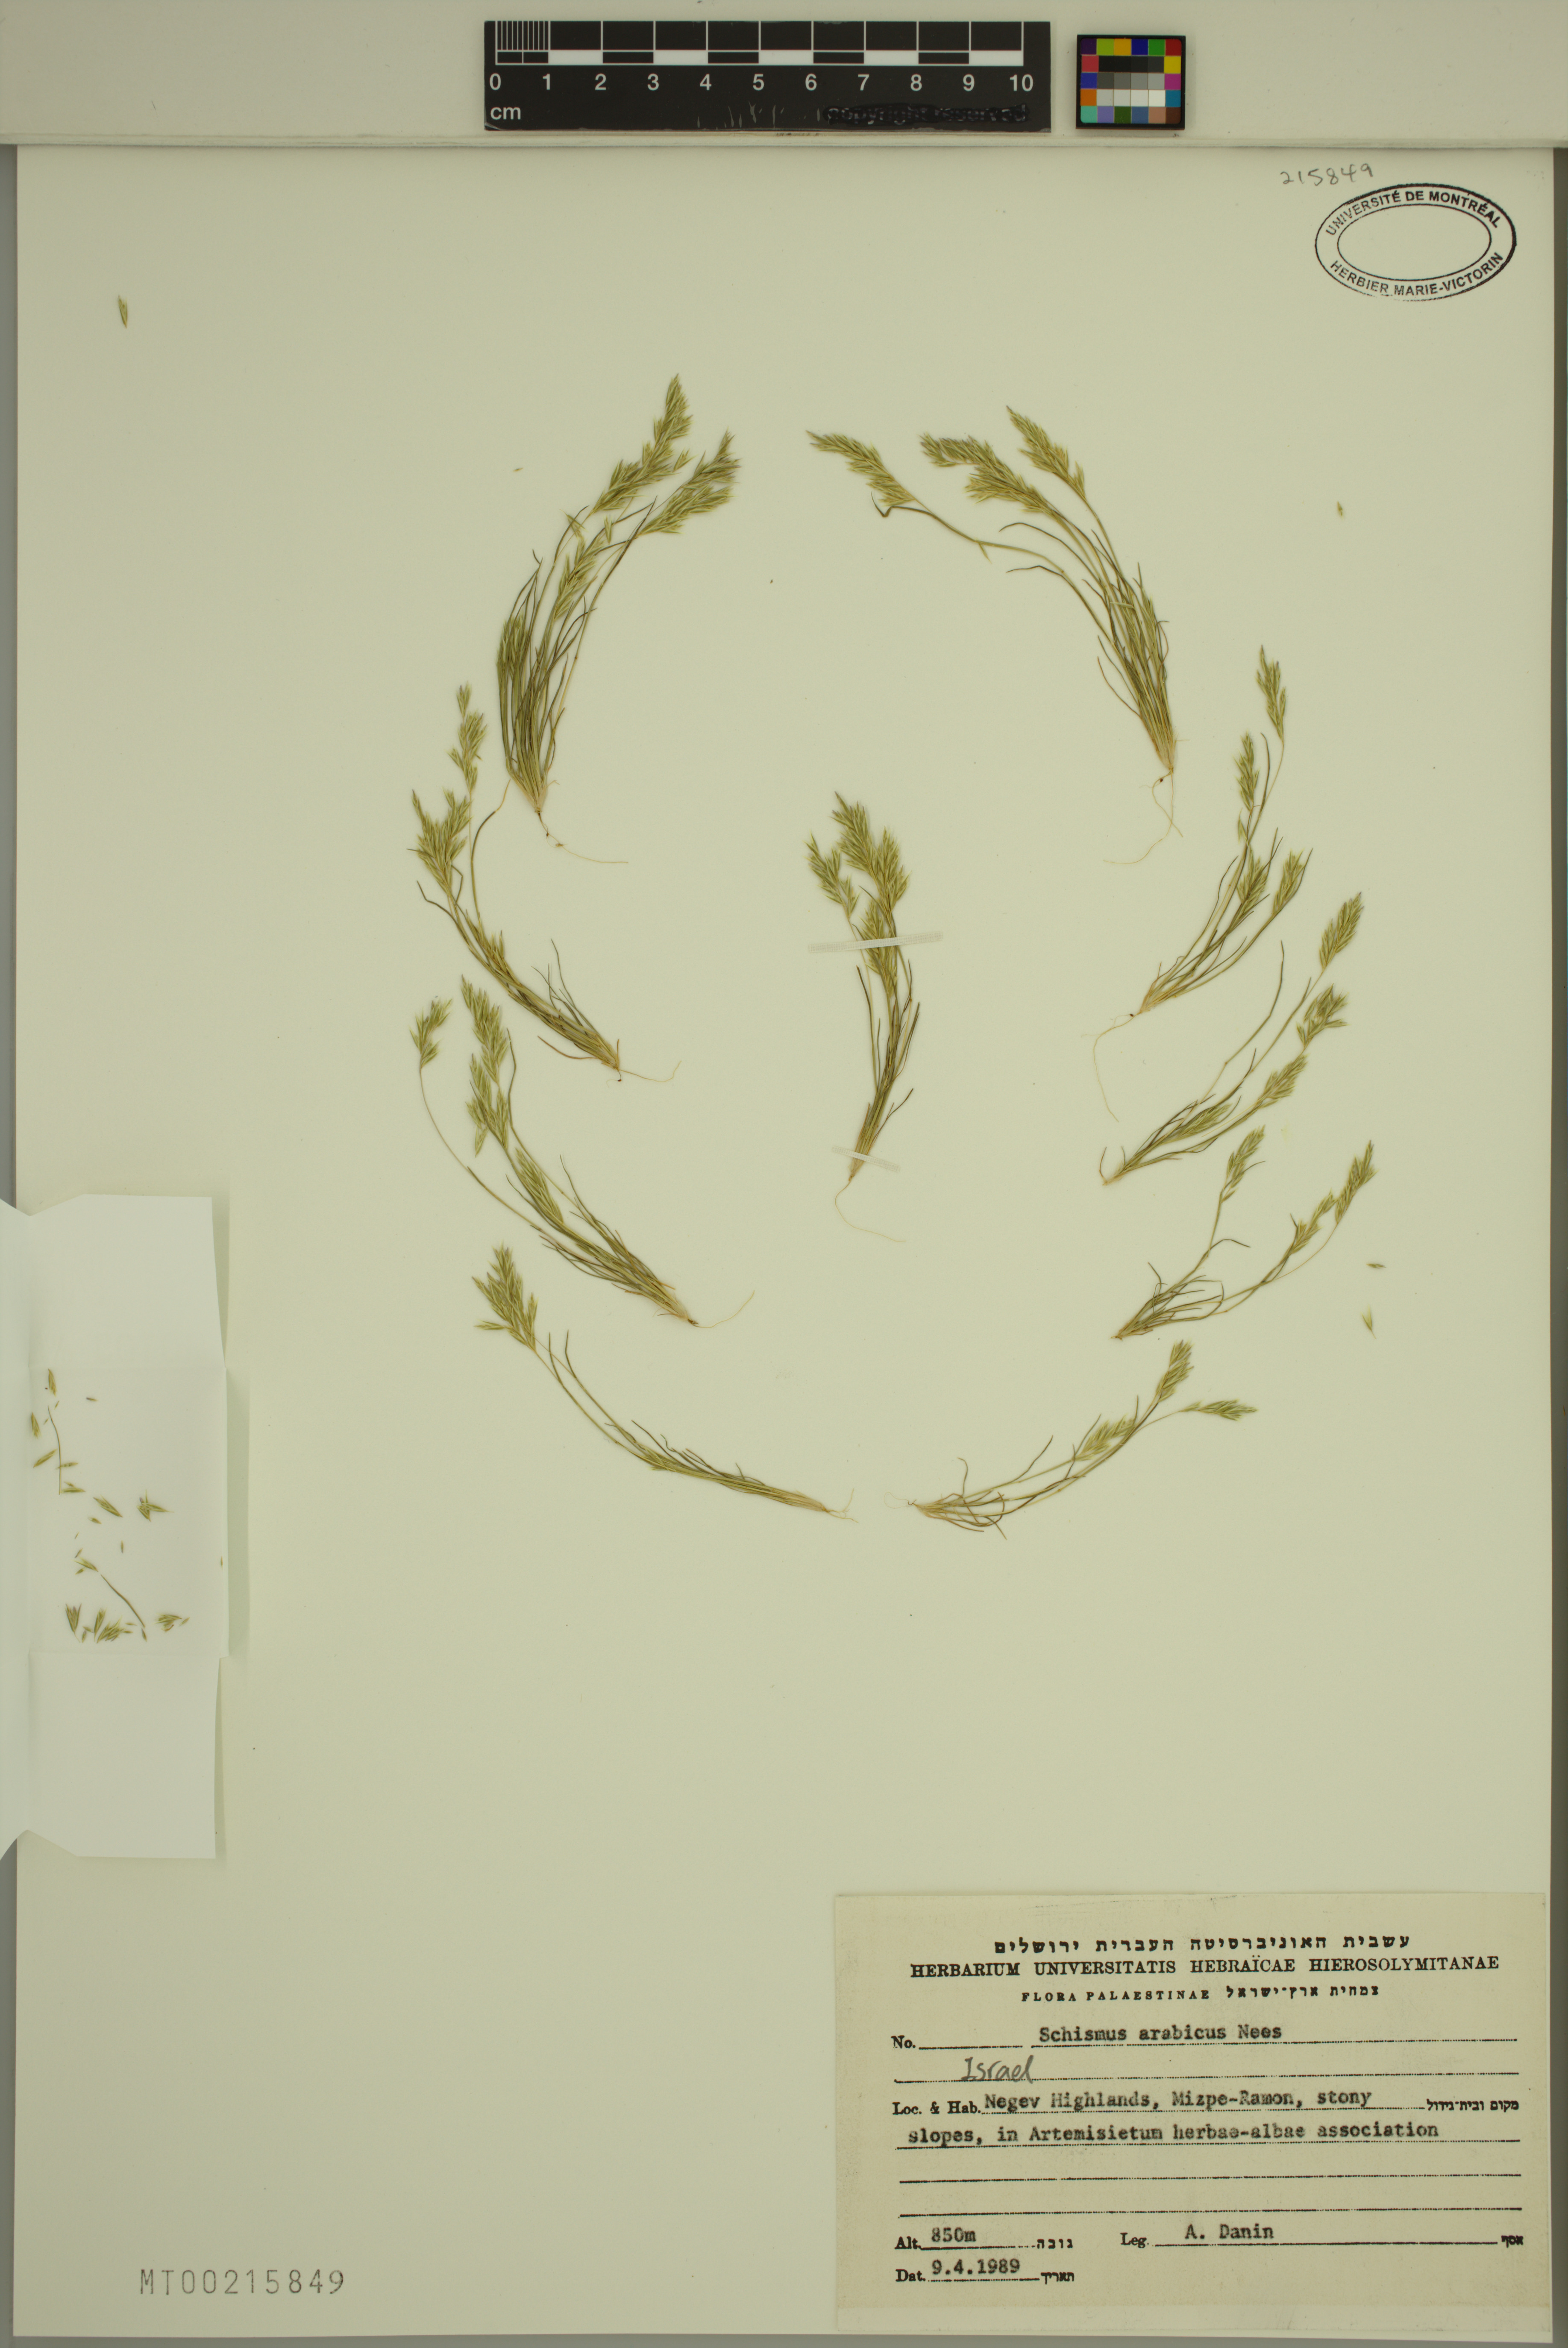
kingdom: Plantae
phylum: Tracheophyta
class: Liliopsida
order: Poales
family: Poaceae
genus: Schismus
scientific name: Schismus arabicus
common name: Arabian schismus
